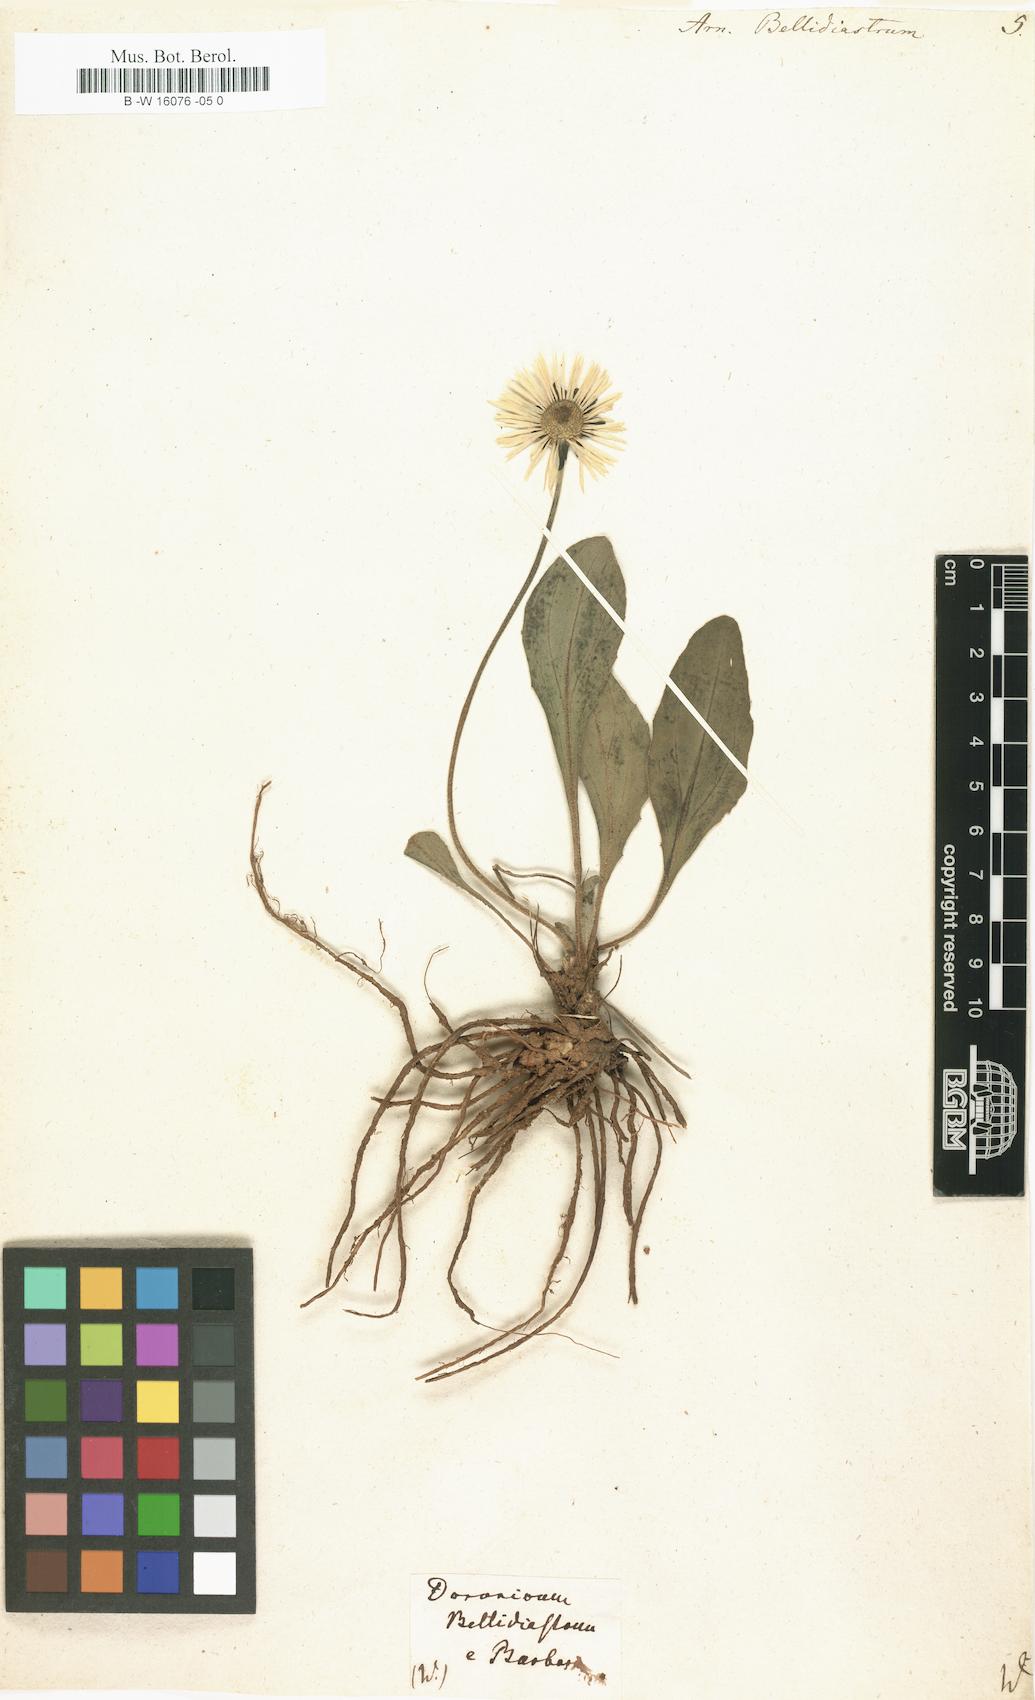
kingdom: Plantae
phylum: Tracheophyta
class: Magnoliopsida
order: Asterales
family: Asteraceae
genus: Bellidiastrum
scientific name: Bellidiastrum michelii
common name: Daisy-star aster
